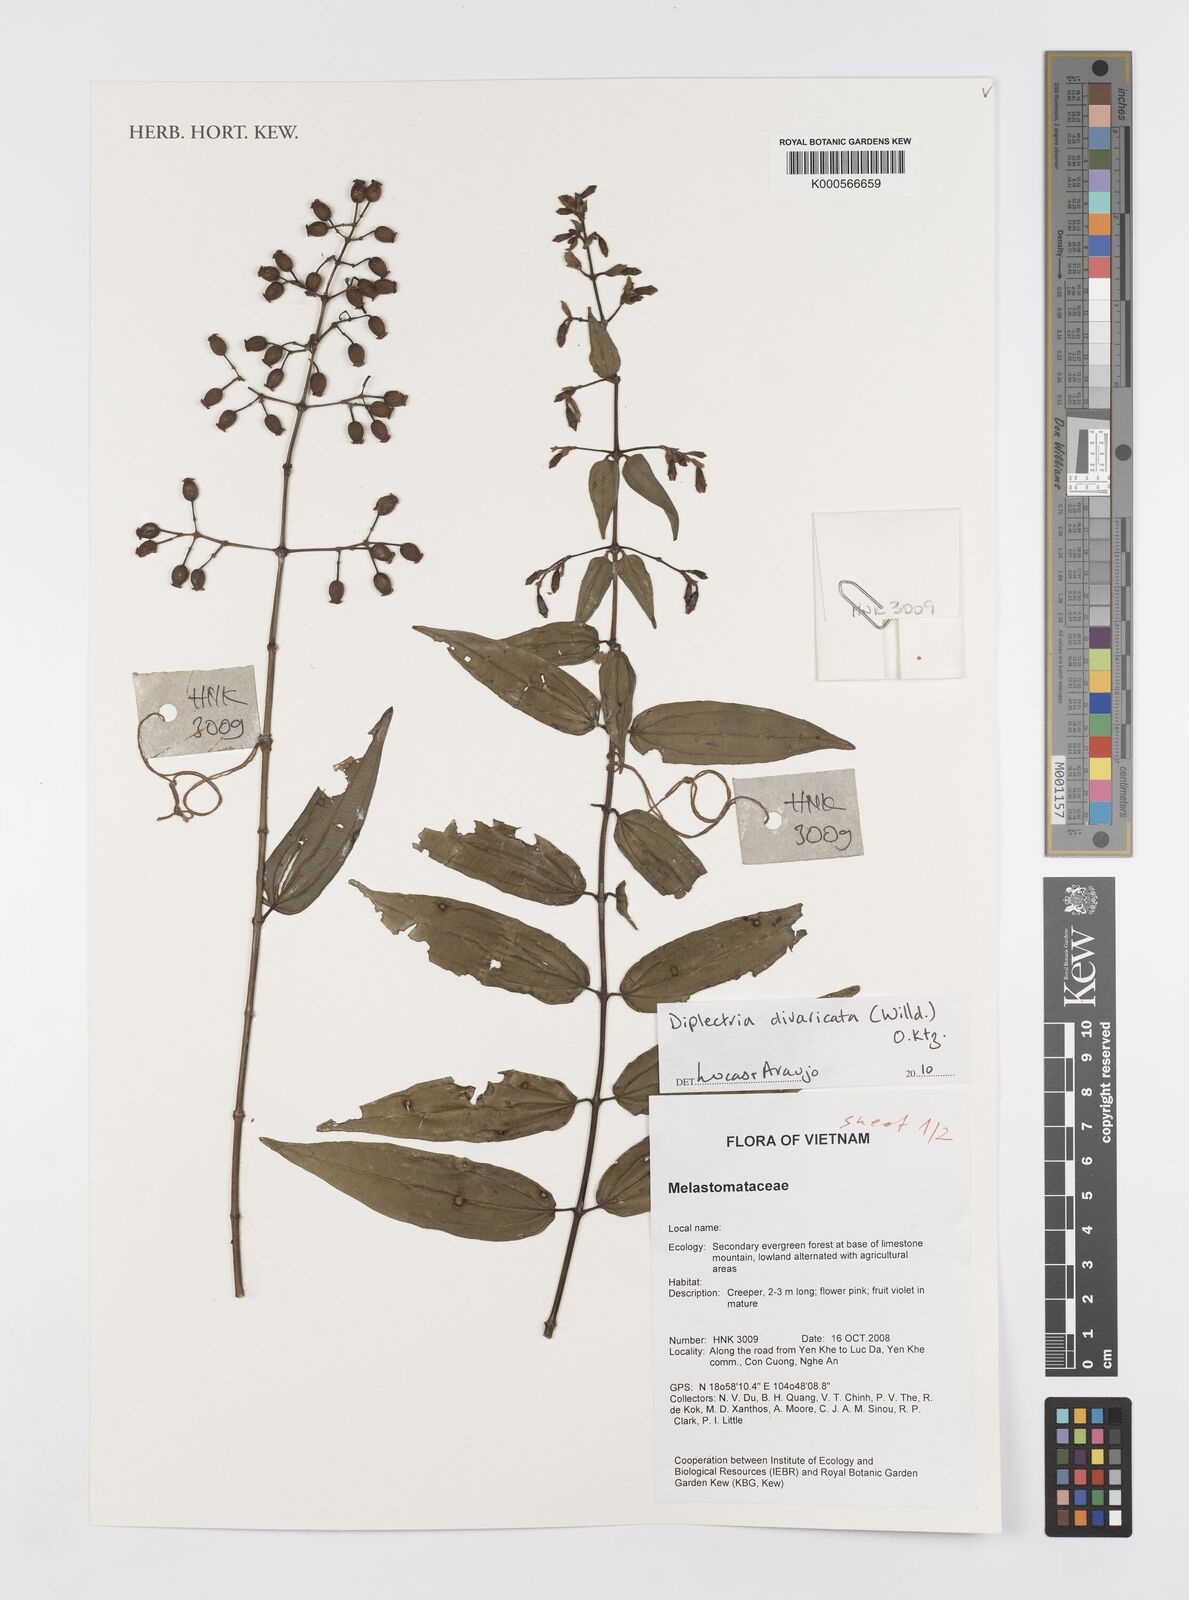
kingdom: Plantae
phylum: Tracheophyta
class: Magnoliopsida
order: Myrtales
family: Melastomataceae
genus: Diplectria
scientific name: Diplectria
